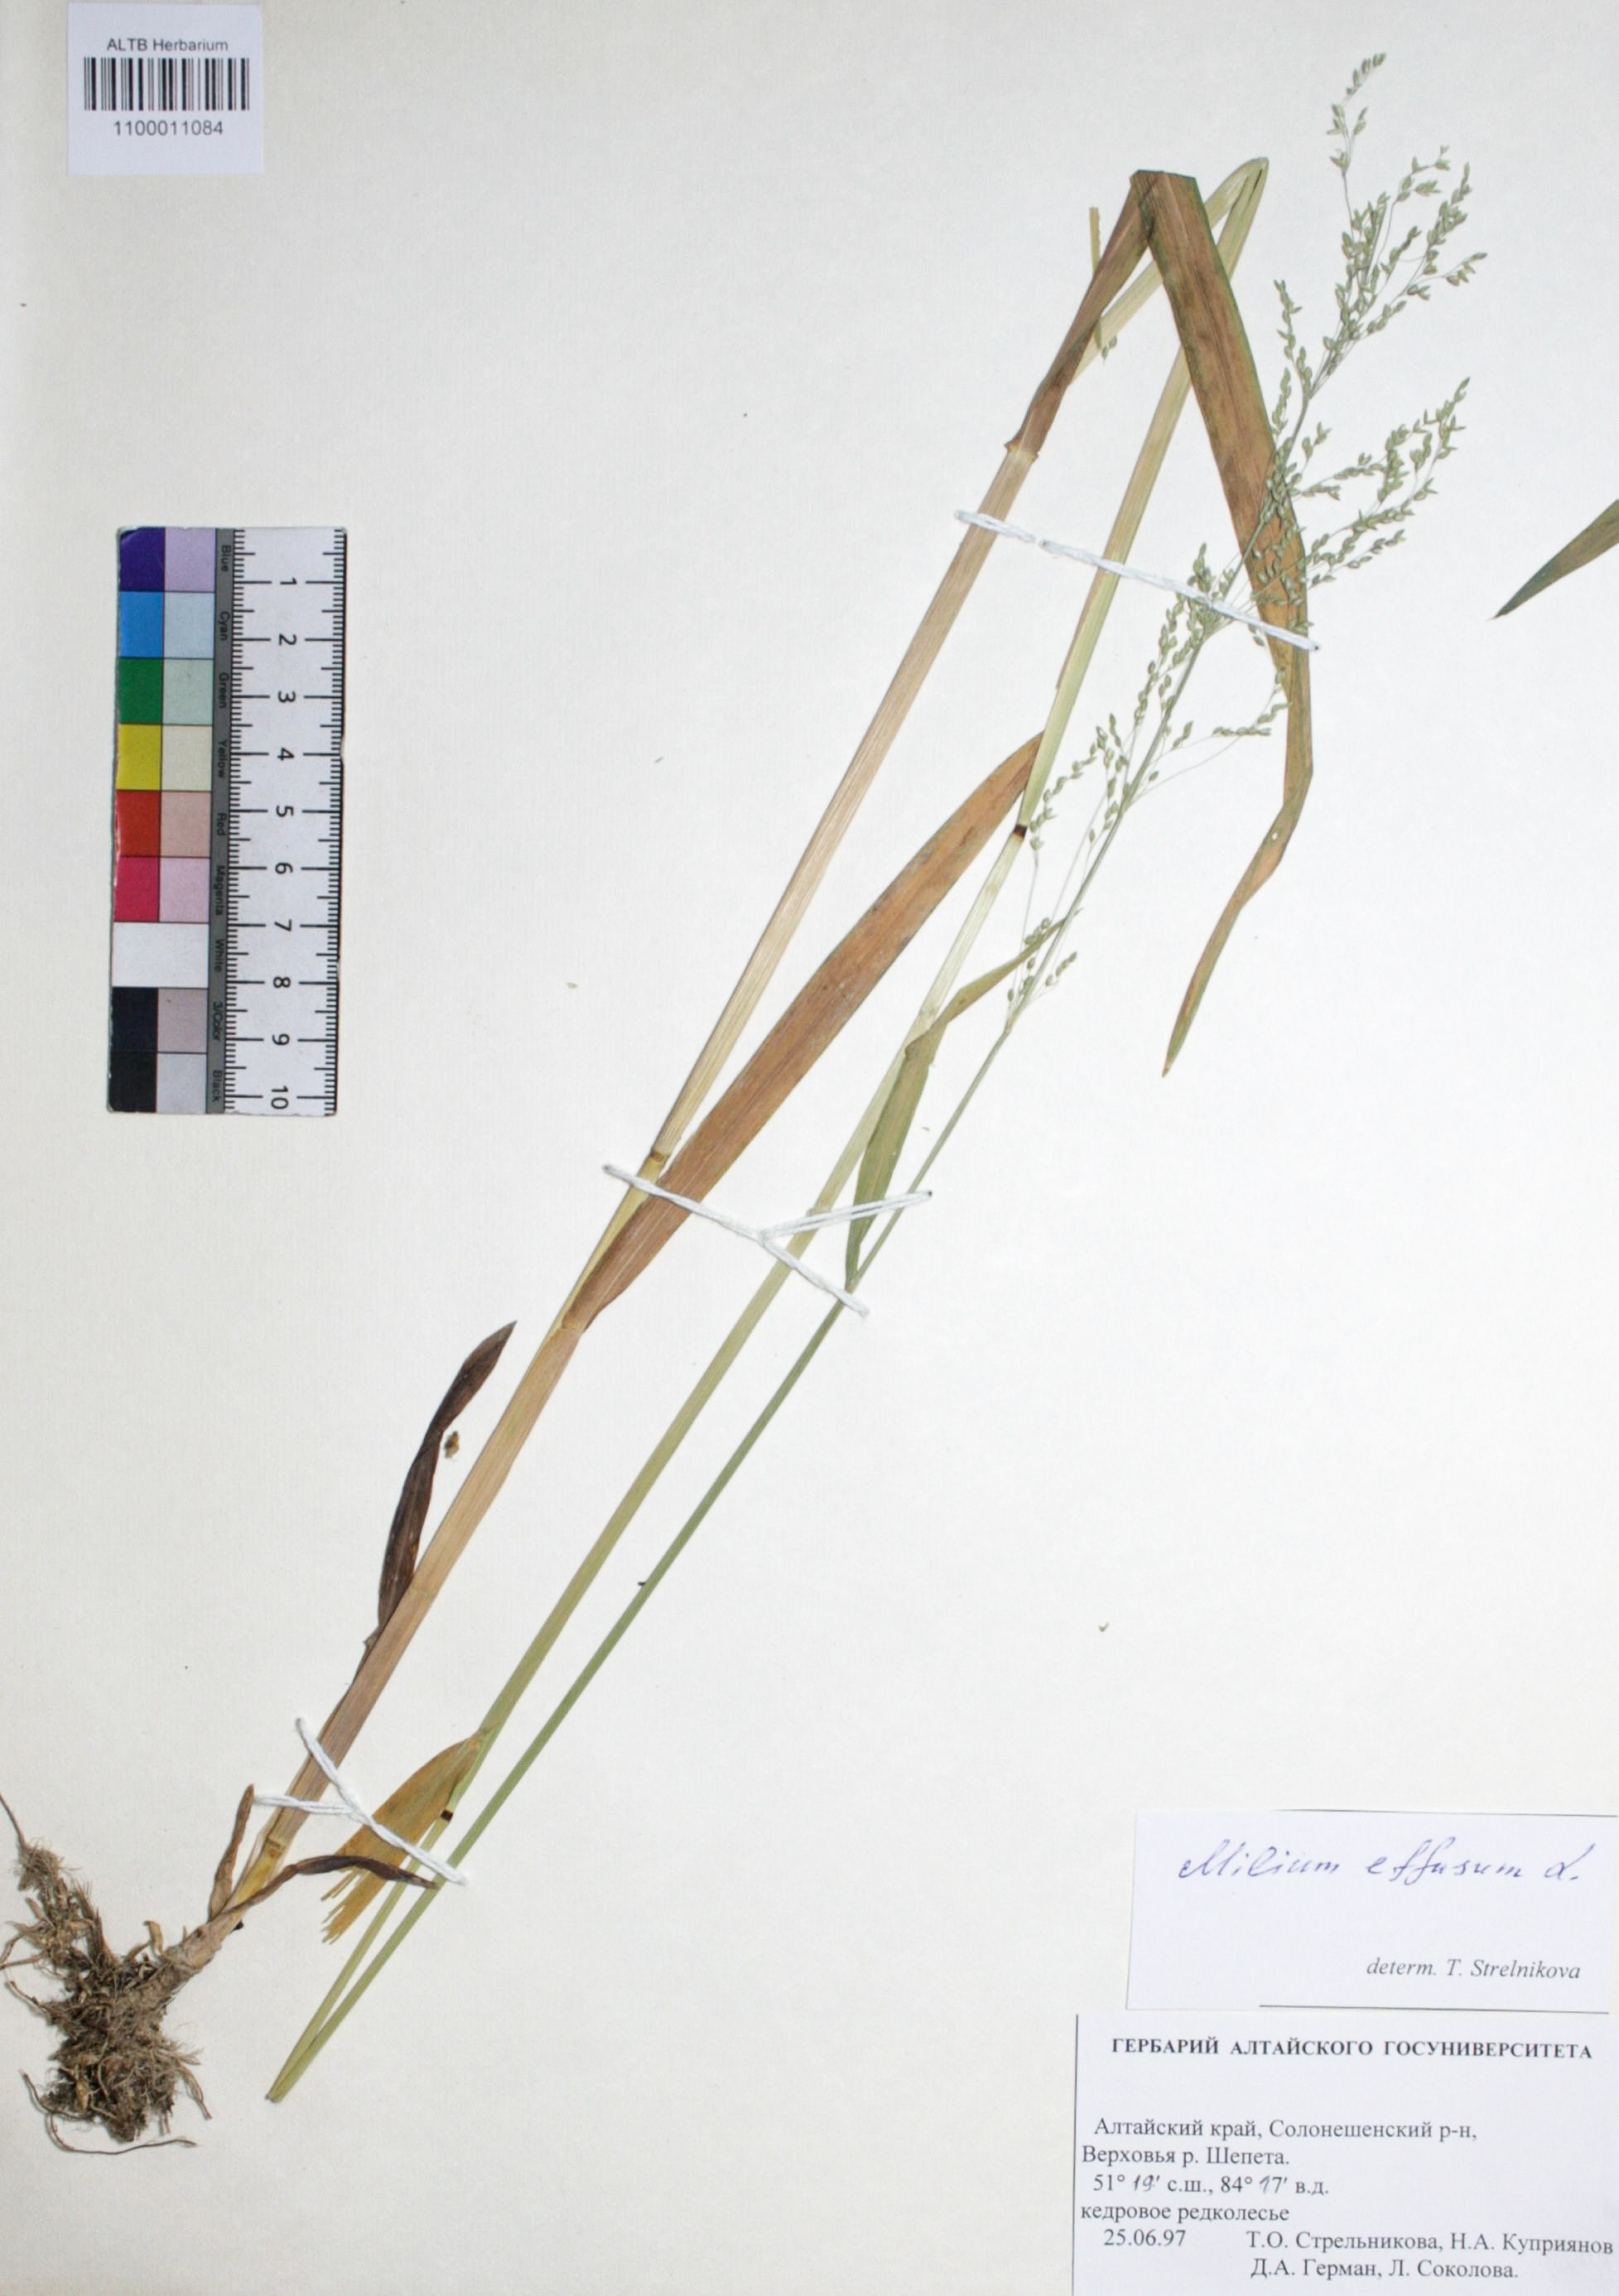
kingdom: Plantae
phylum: Tracheophyta
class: Liliopsida
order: Poales
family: Poaceae
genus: Milium
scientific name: Milium effusum
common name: Wood millet
